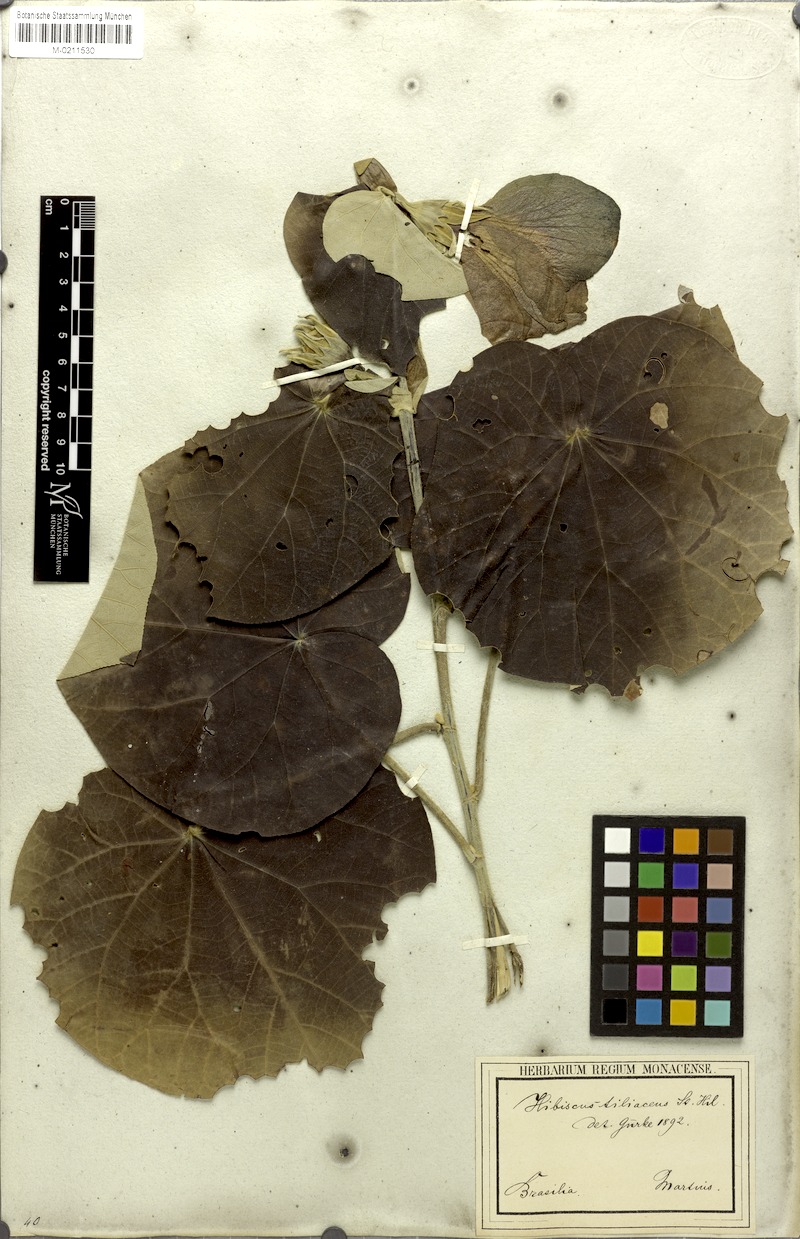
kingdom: Plantae
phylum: Tracheophyta
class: Magnoliopsida
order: Malvales
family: Malvaceae
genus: Talipariti
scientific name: Talipariti tiliaceum
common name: Sea hibiscus
